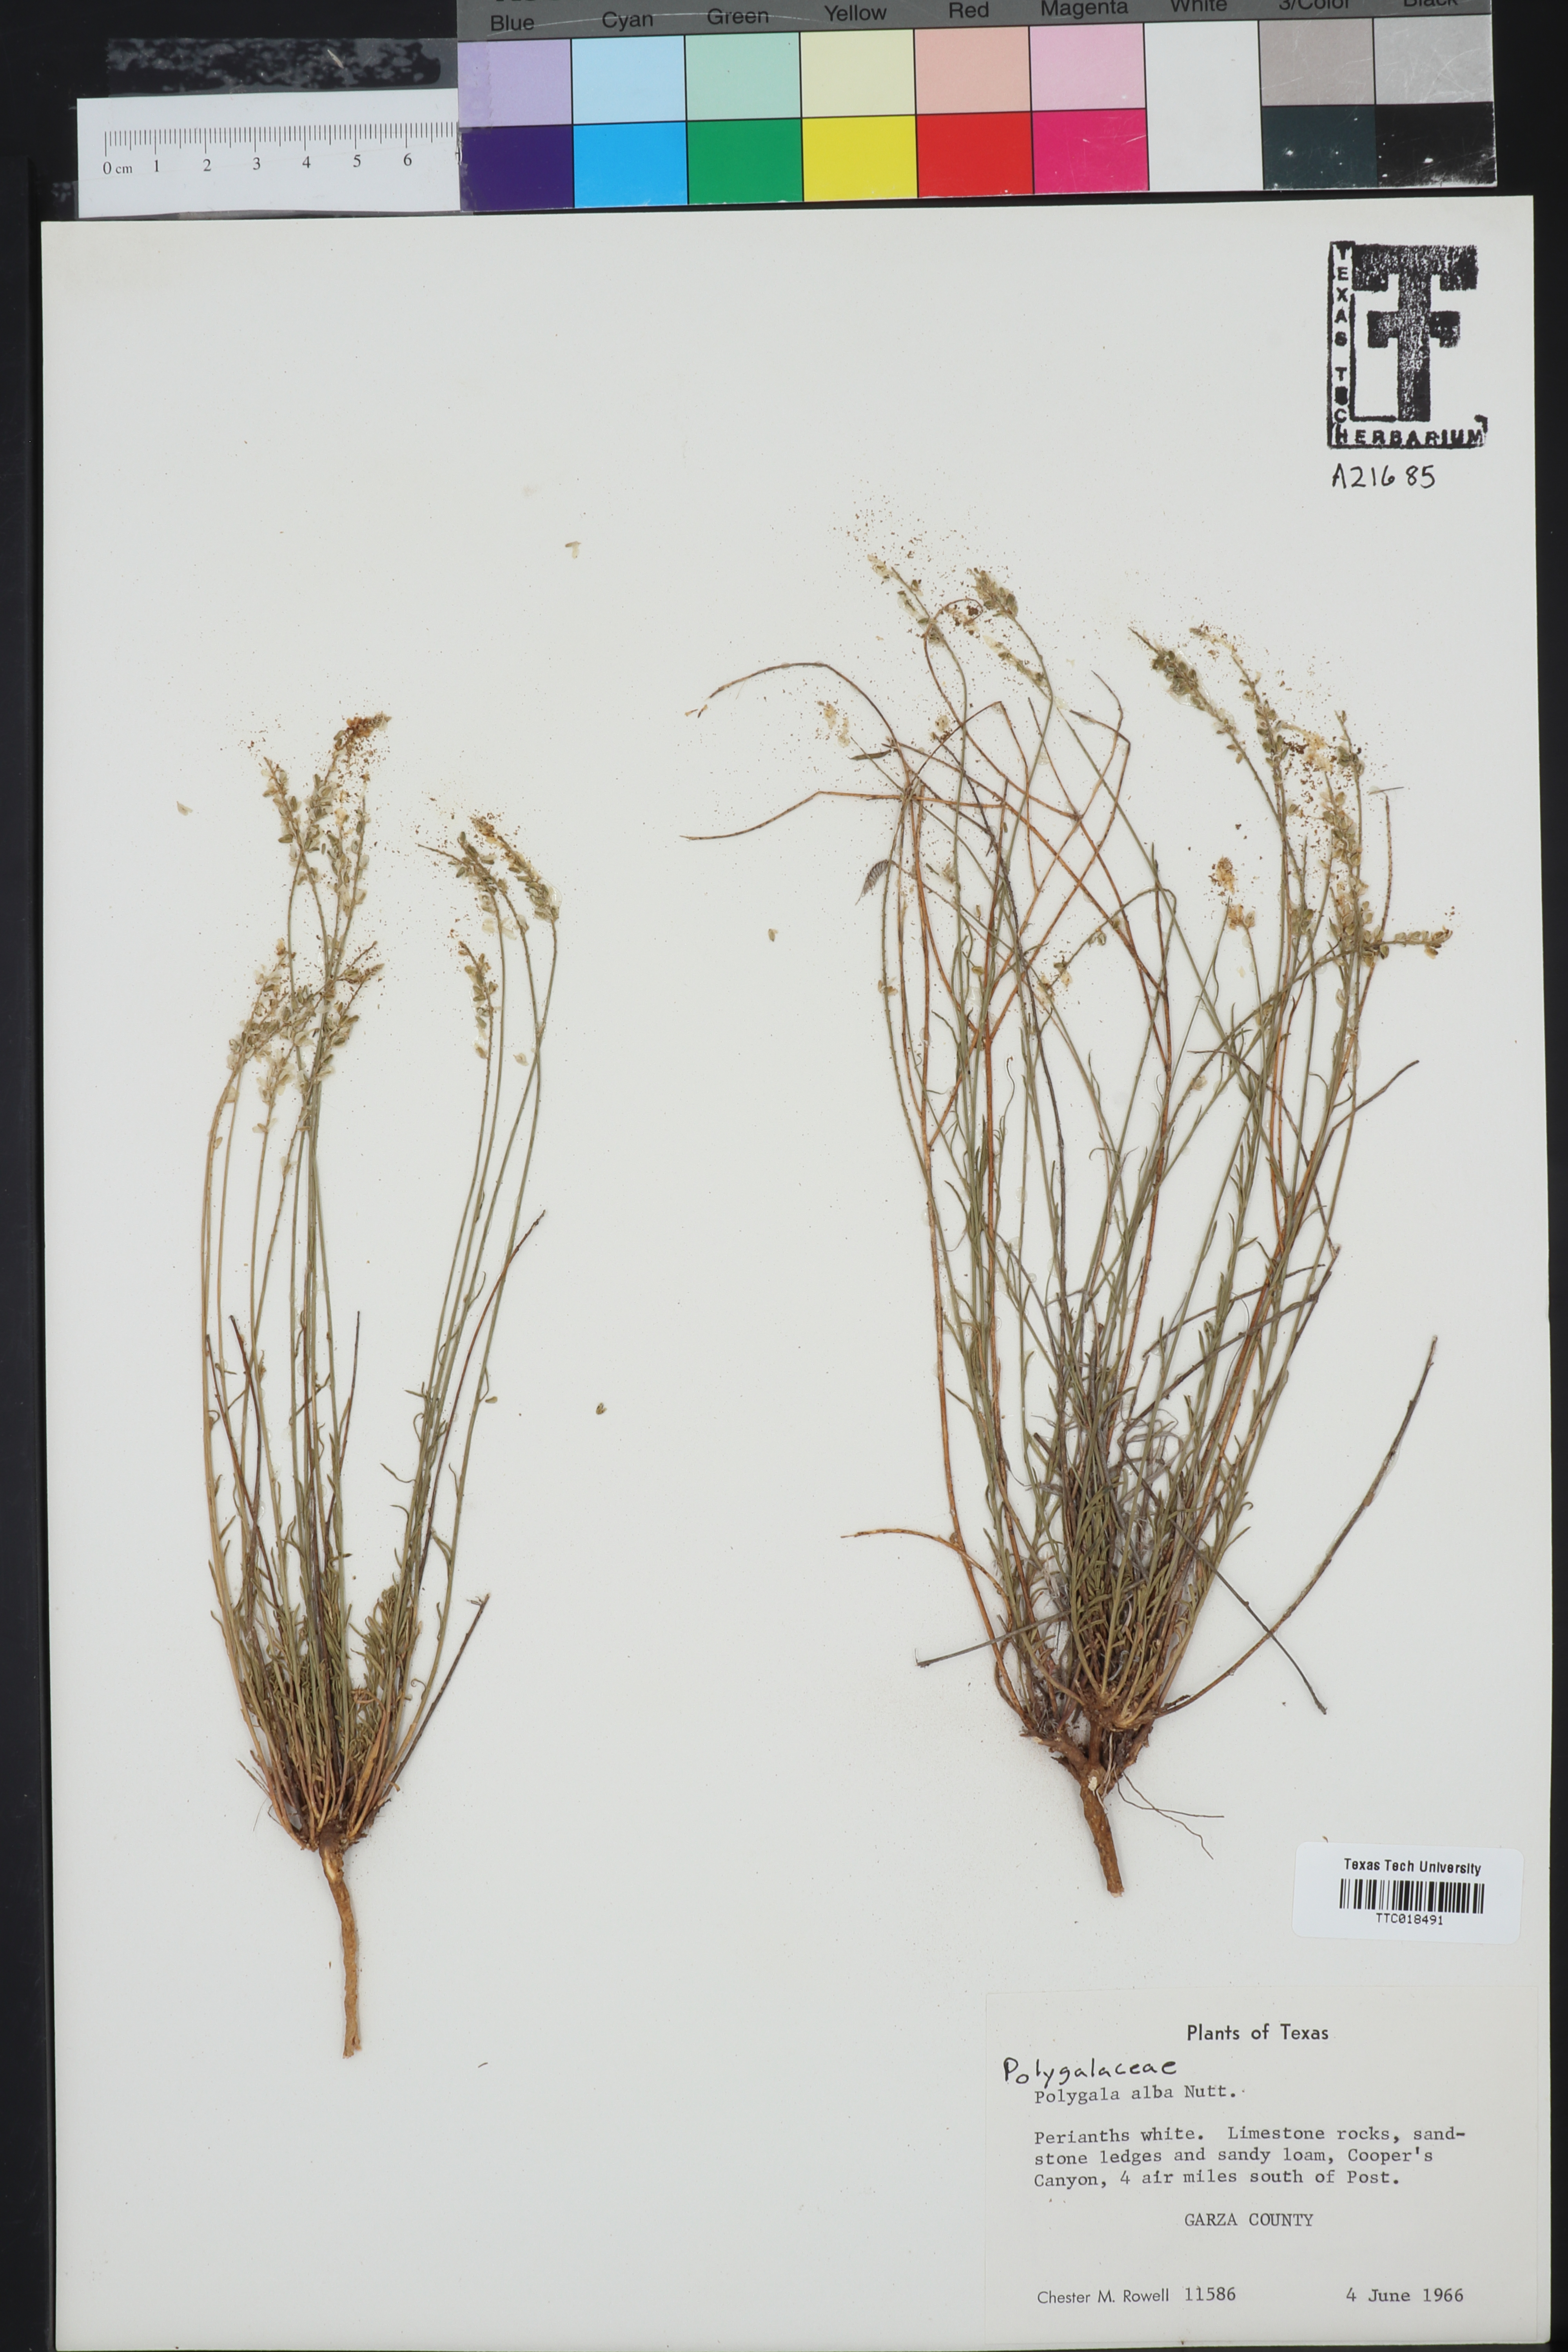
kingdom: Plantae
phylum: Tracheophyta
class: Magnoliopsida
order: Fabales
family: Polygalaceae
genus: Polygala
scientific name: Polygala alba
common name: White milkwort
